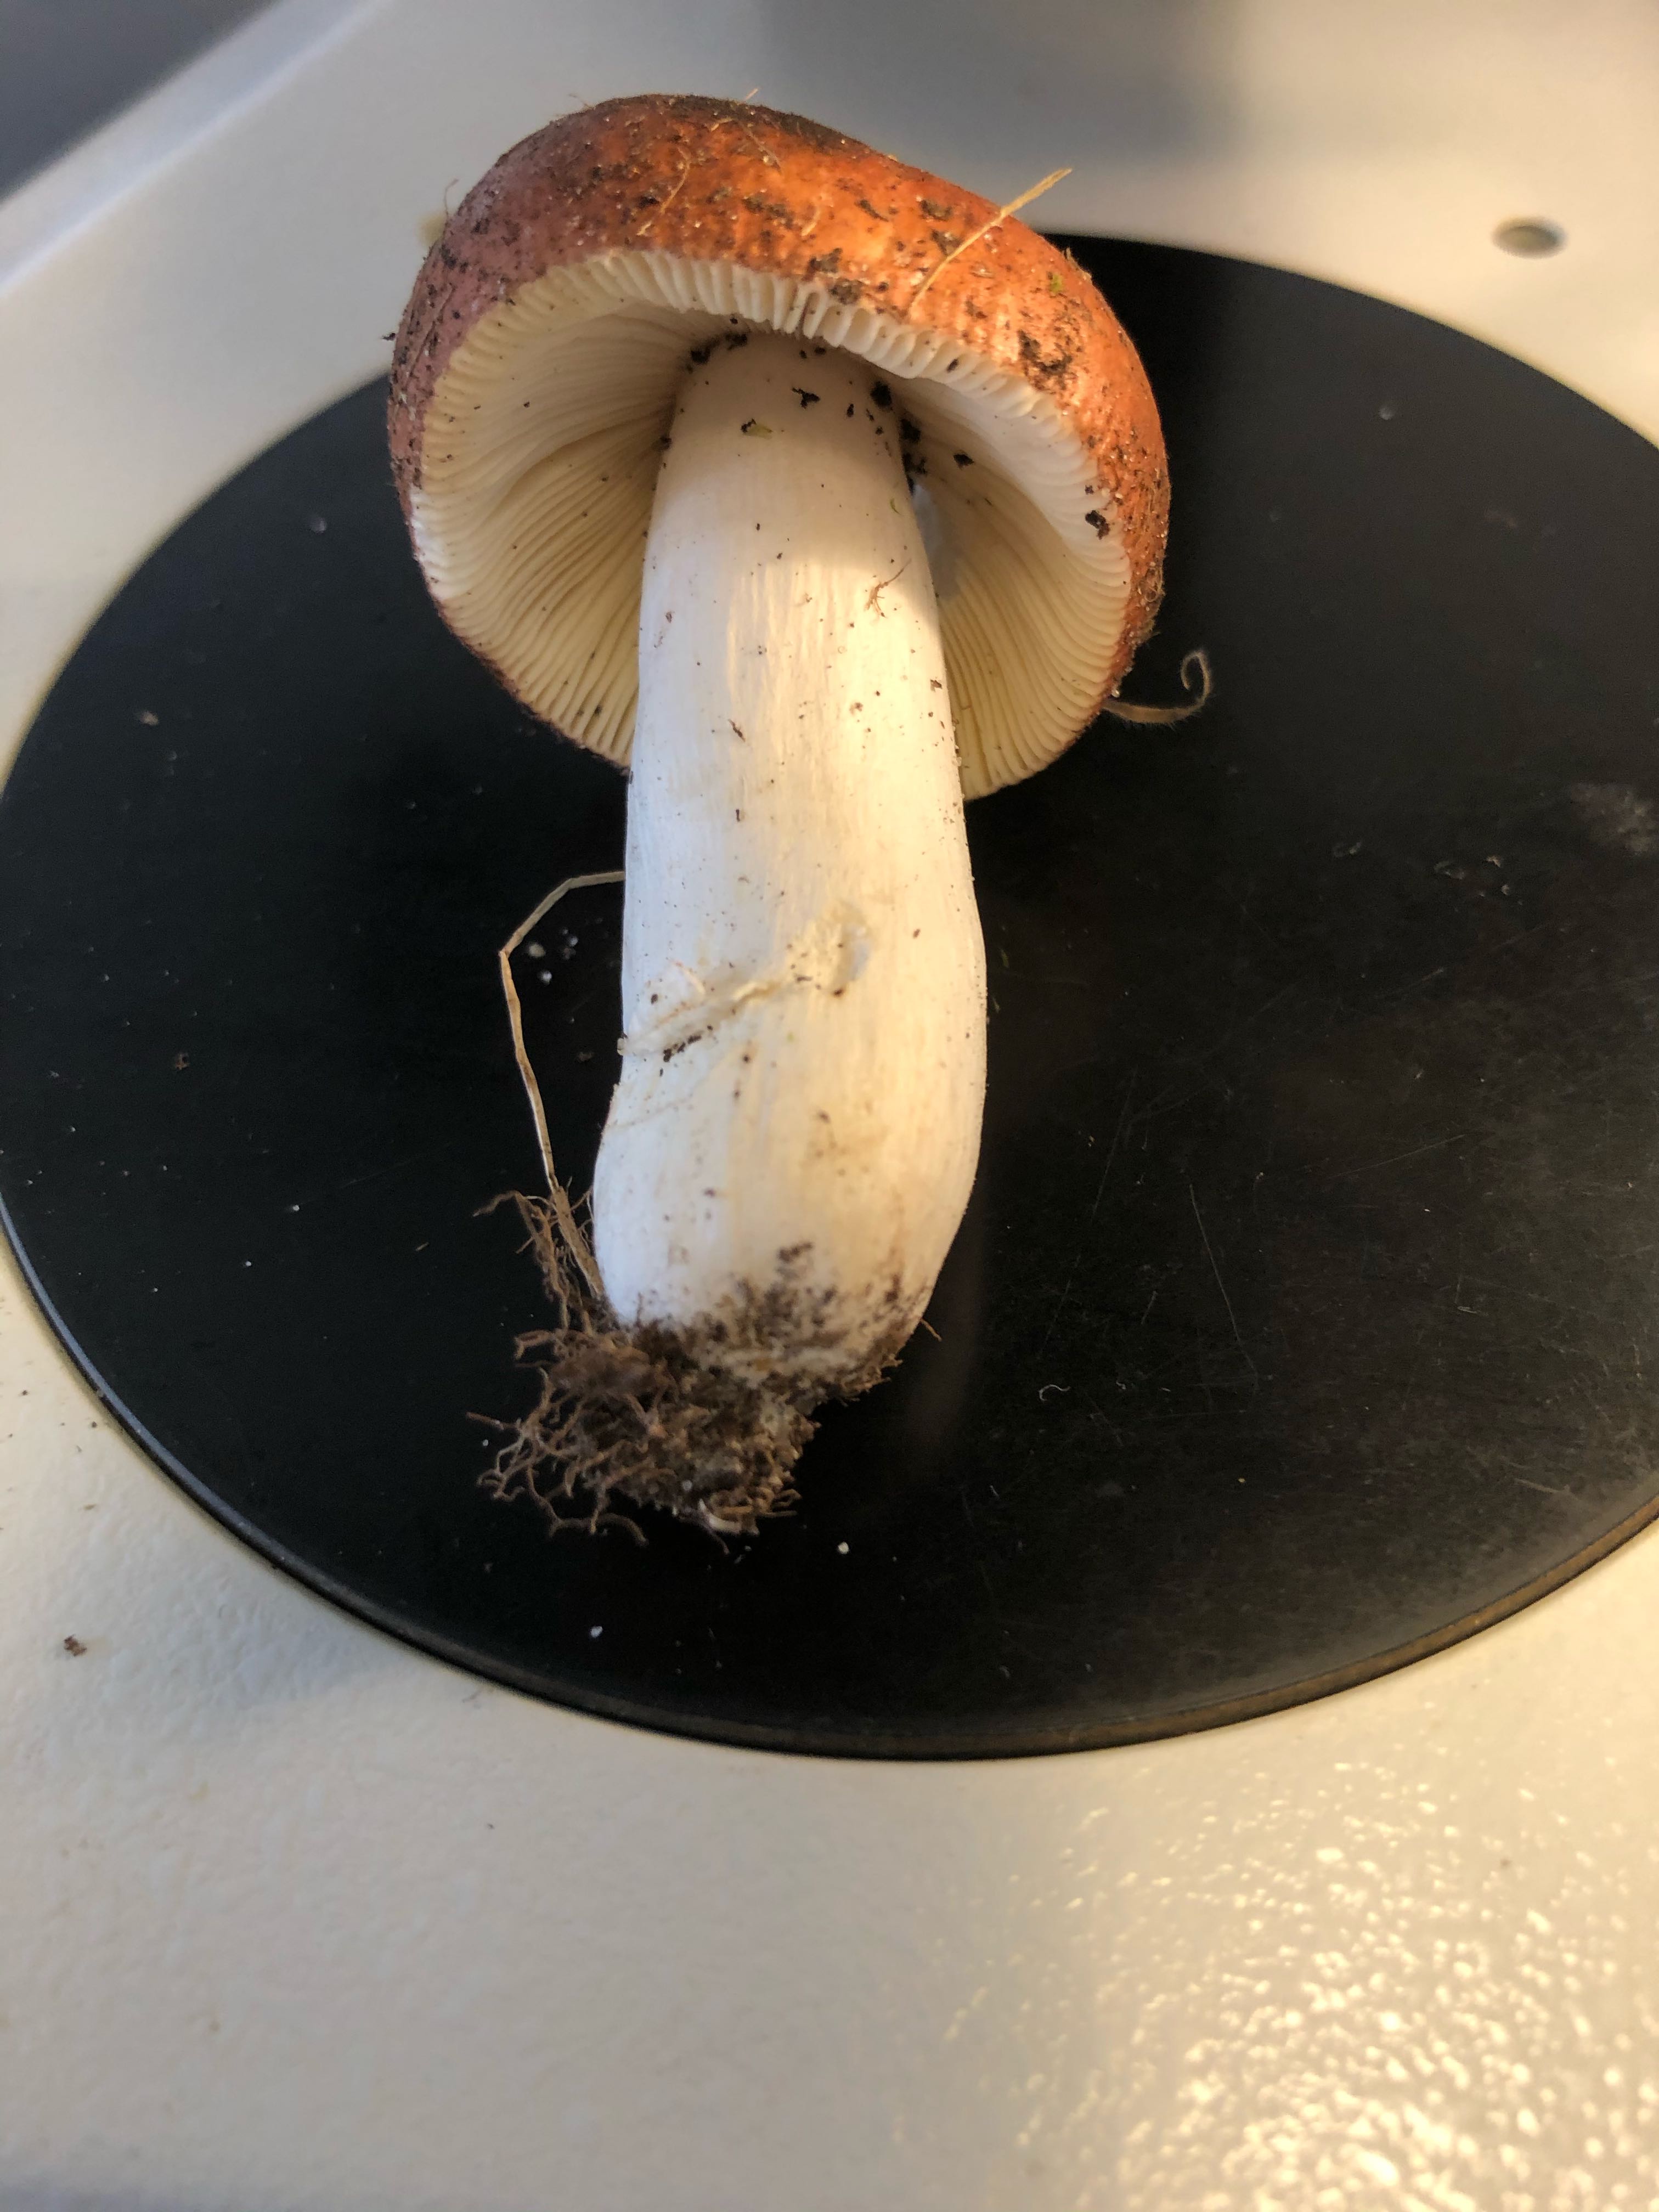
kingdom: Fungi
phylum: Basidiomycota
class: Agaricomycetes
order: Russulales
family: Russulaceae
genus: Russula
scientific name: Russula velenovskyi
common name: orangerød skørhat
